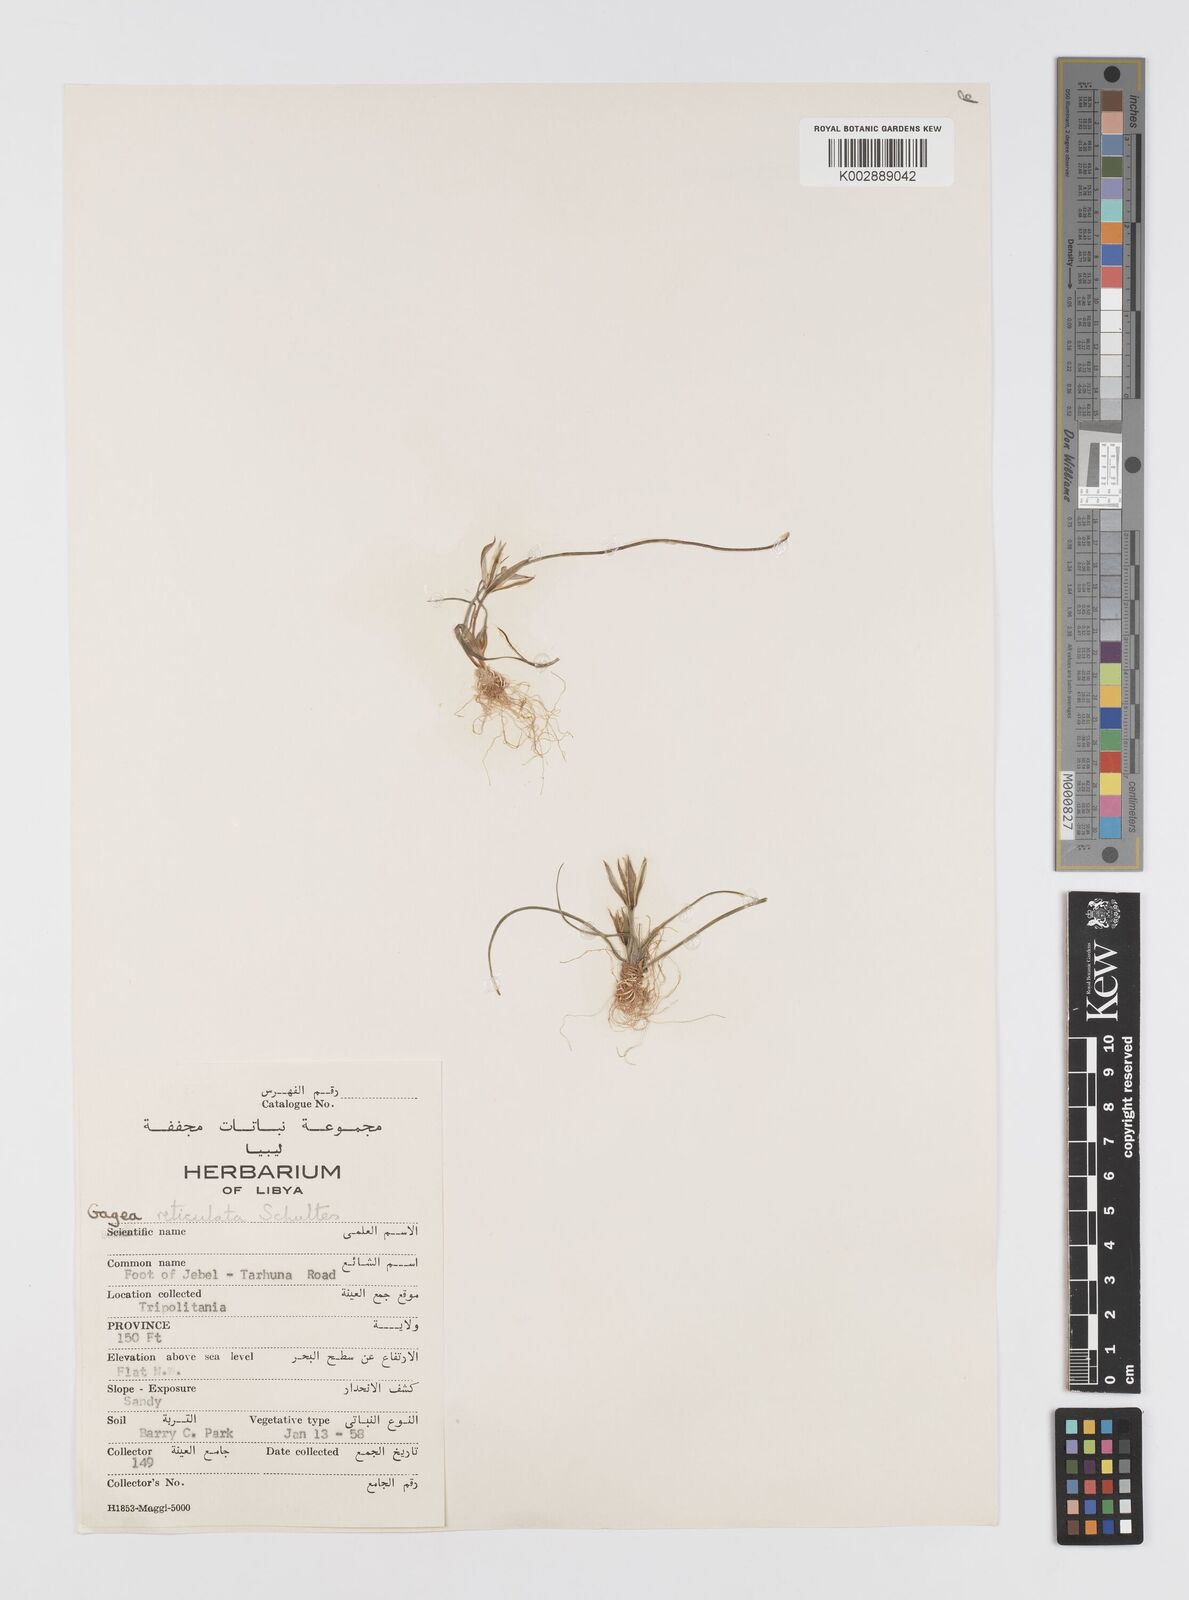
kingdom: Plantae
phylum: Tracheophyta
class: Liliopsida
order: Liliales
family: Liliaceae
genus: Gagea
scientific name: Gagea reticulata
